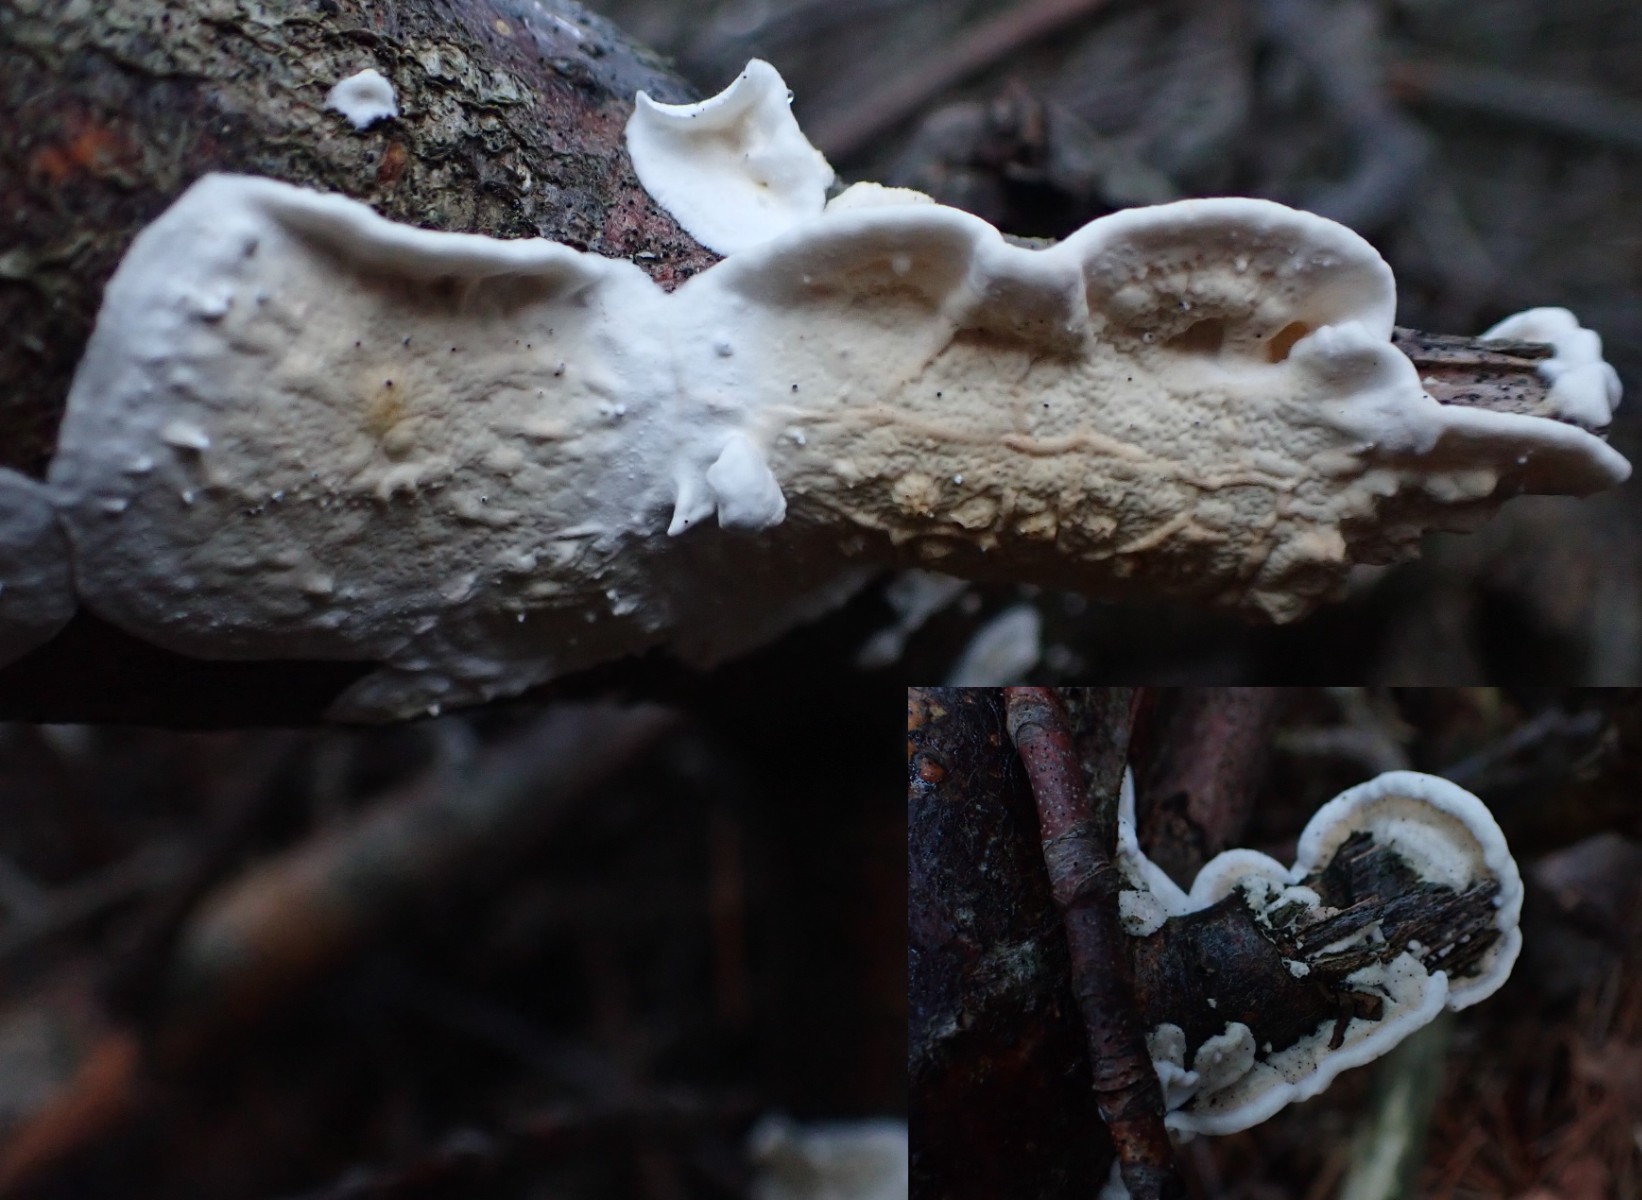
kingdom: Fungi
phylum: Basidiomycota
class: Agaricomycetes
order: Polyporales
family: Irpicaceae
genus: Byssomerulius
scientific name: Byssomerulius corium
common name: læder-åresvamp
